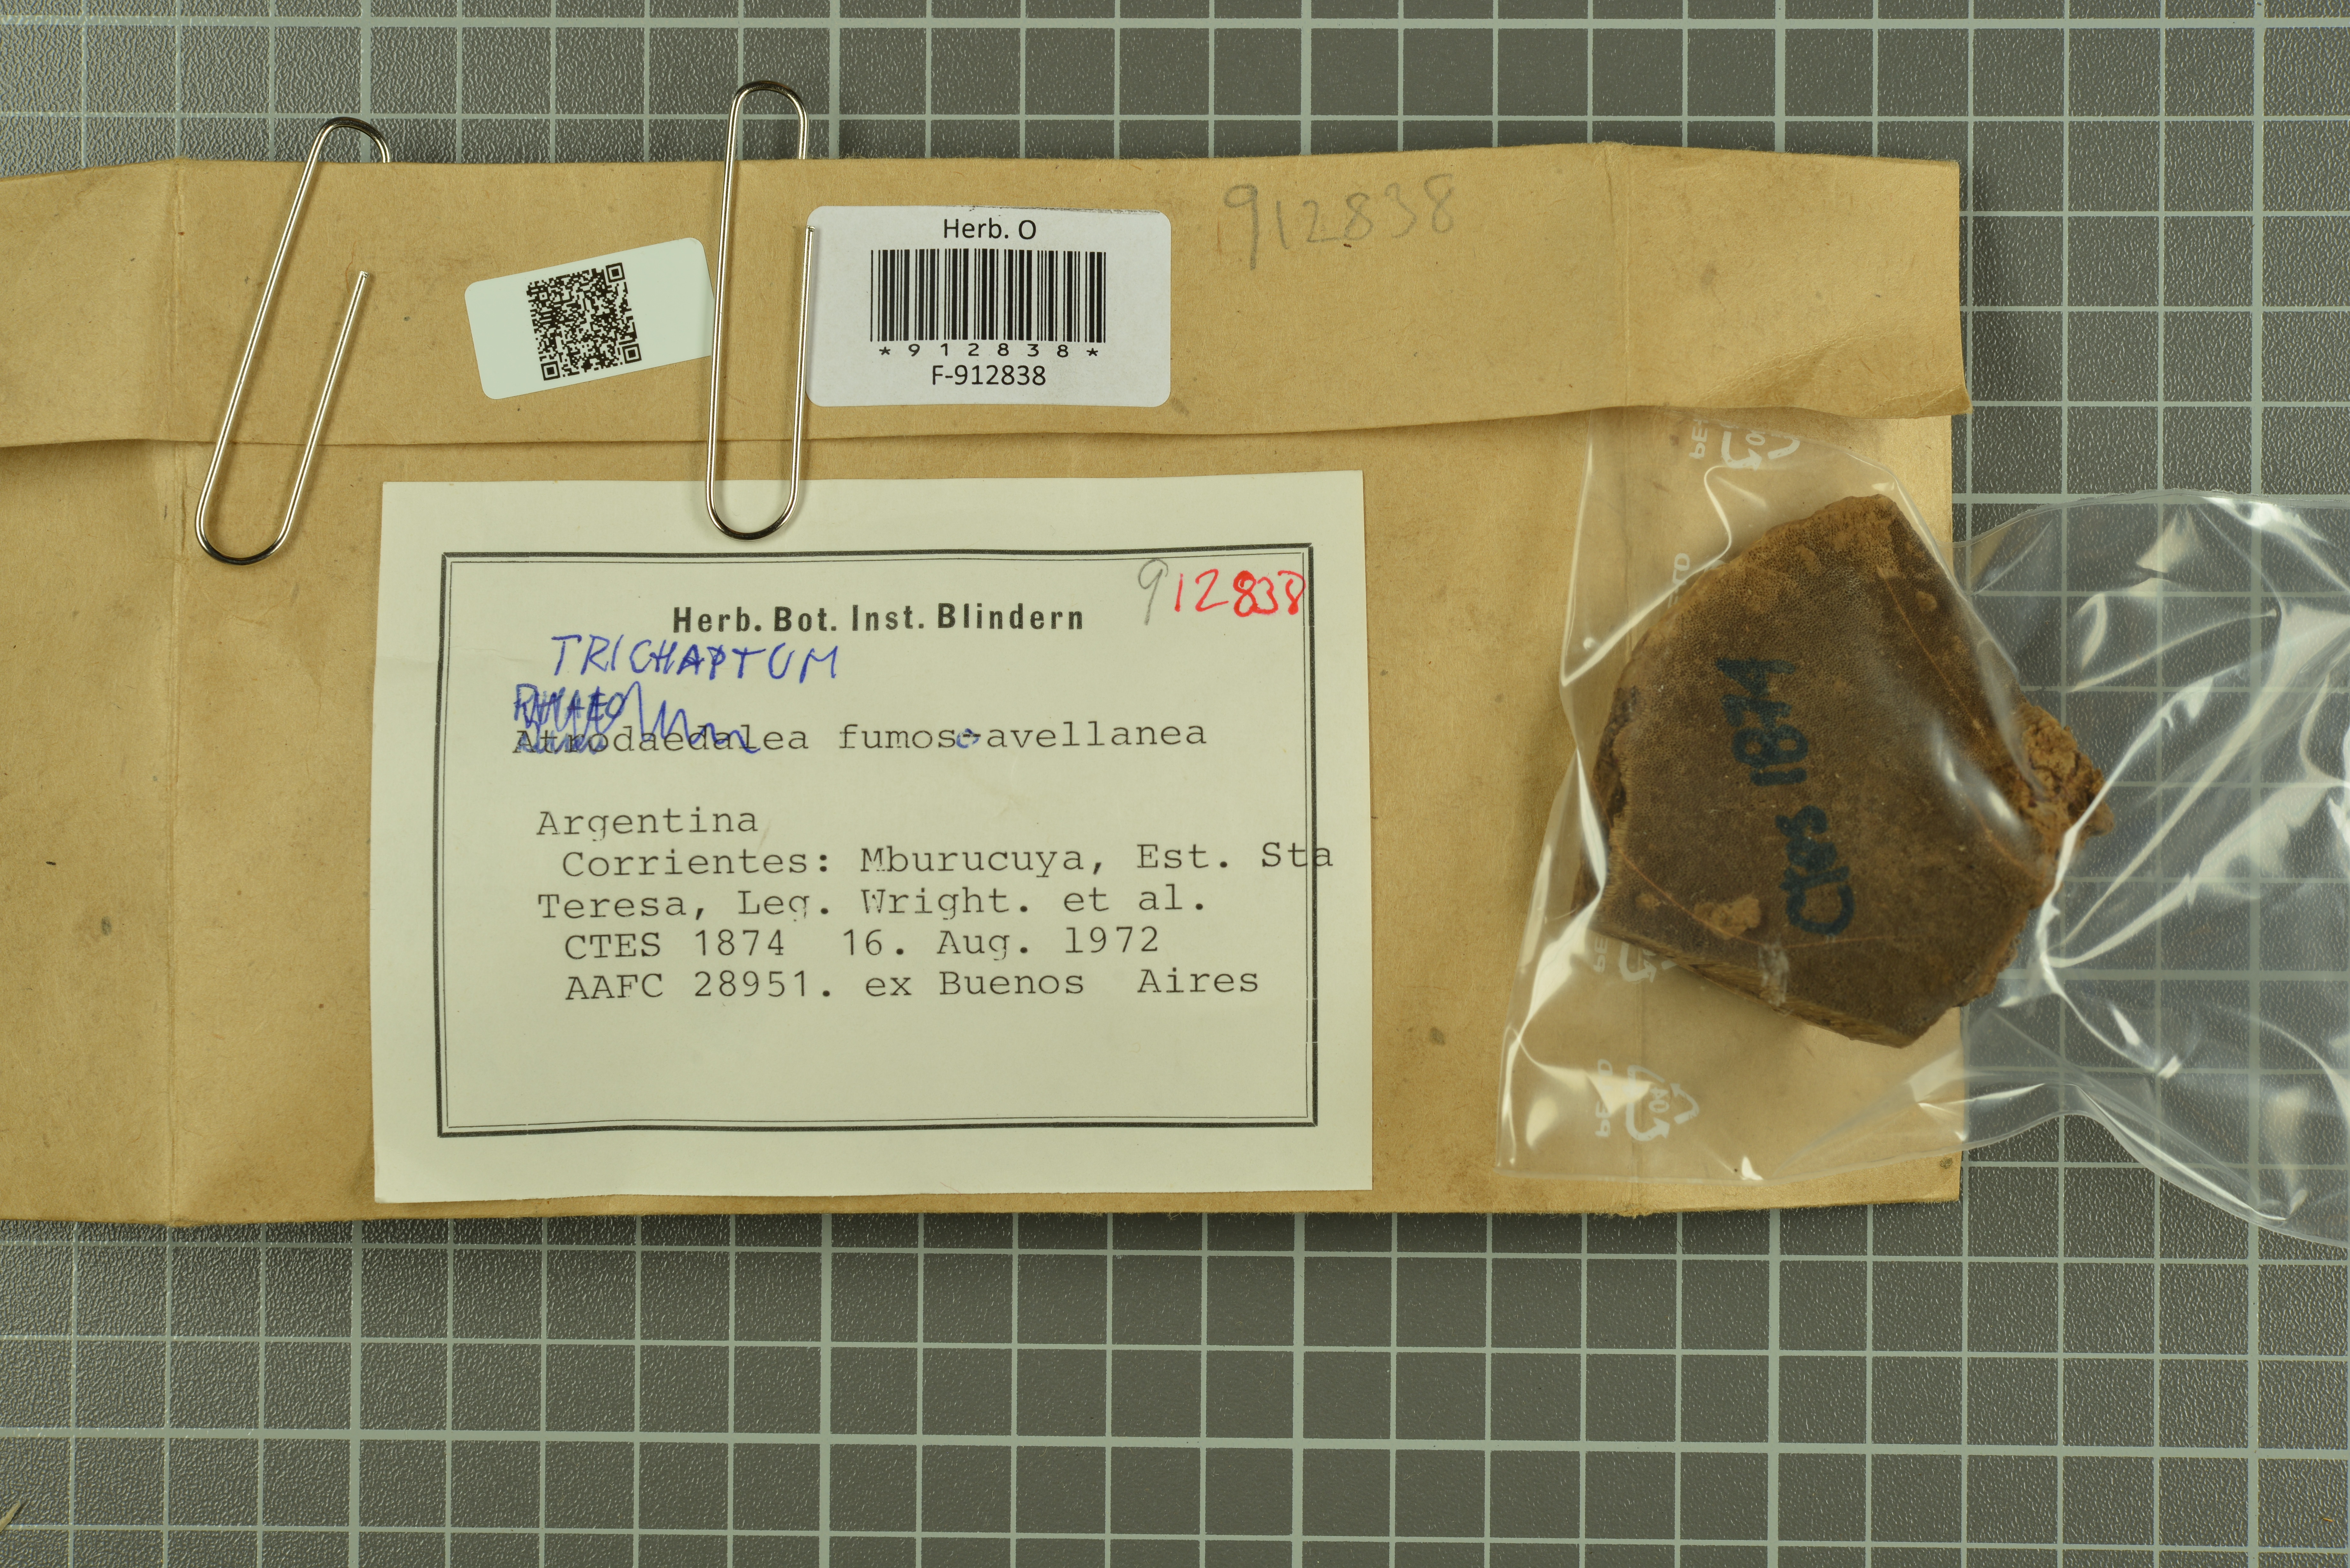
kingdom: Fungi
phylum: Basidiomycota
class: Agaricomycetes
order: Hymenochaetales
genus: Trichaptum
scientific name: Trichaptum fumosoavellaneum
